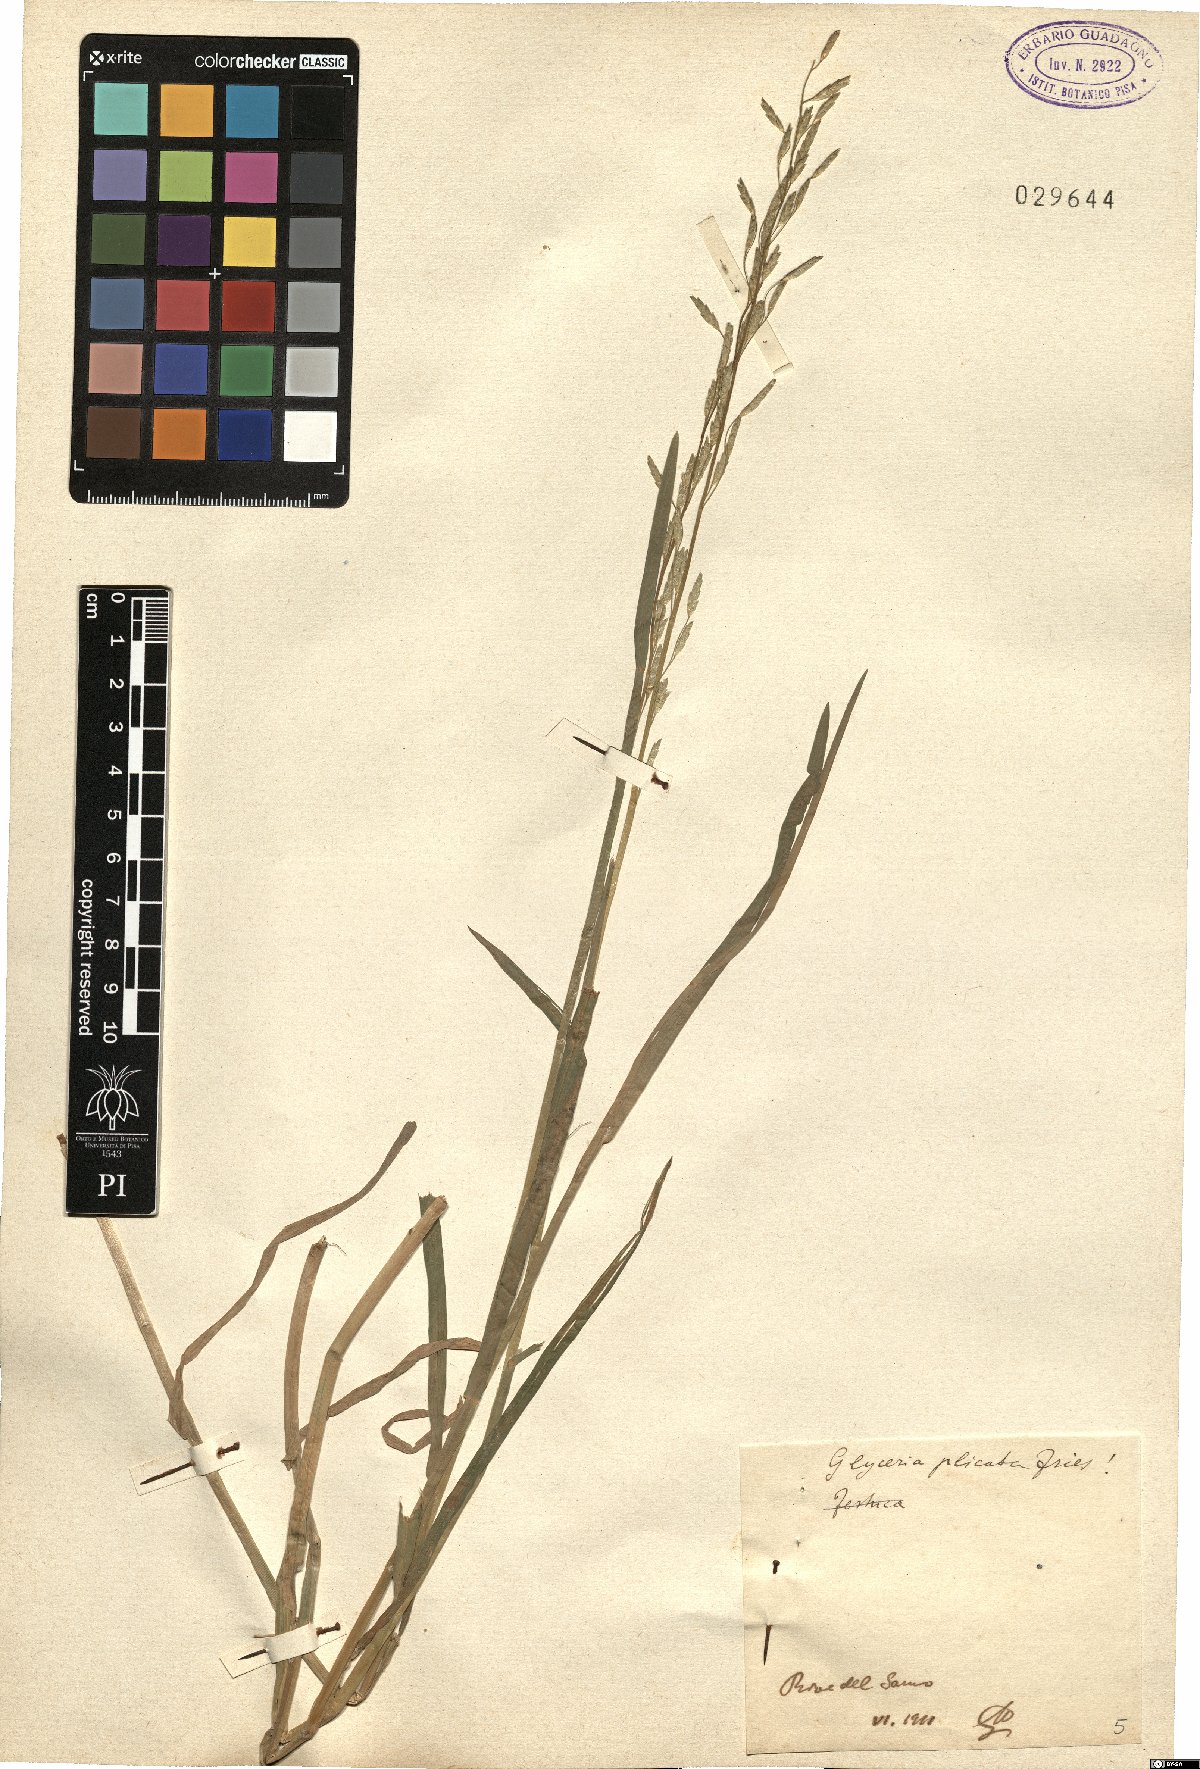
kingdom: Plantae
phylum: Tracheophyta
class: Liliopsida
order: Poales
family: Poaceae
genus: Glyceria
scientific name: Glyceria notata
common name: Plicate sweet-grass
